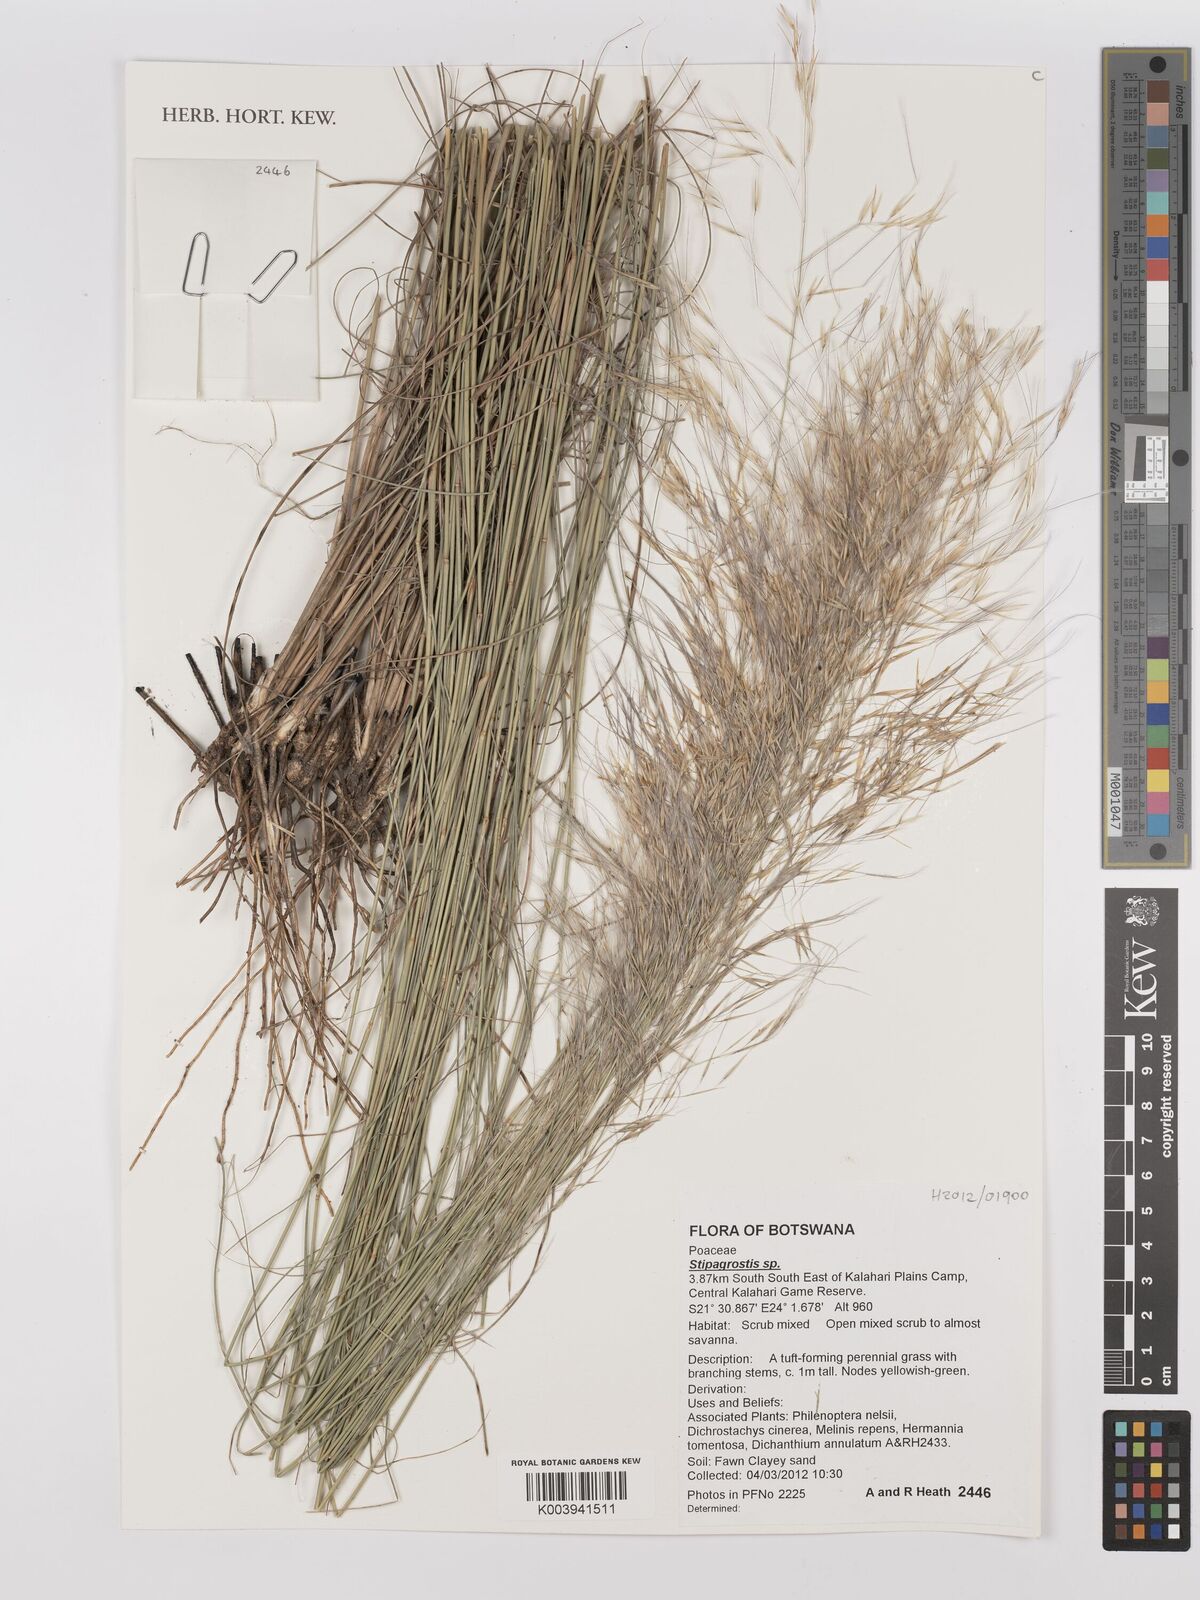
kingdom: Plantae
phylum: Tracheophyta
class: Liliopsida
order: Poales
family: Poaceae
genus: Stipagrostis
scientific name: Stipagrostis
